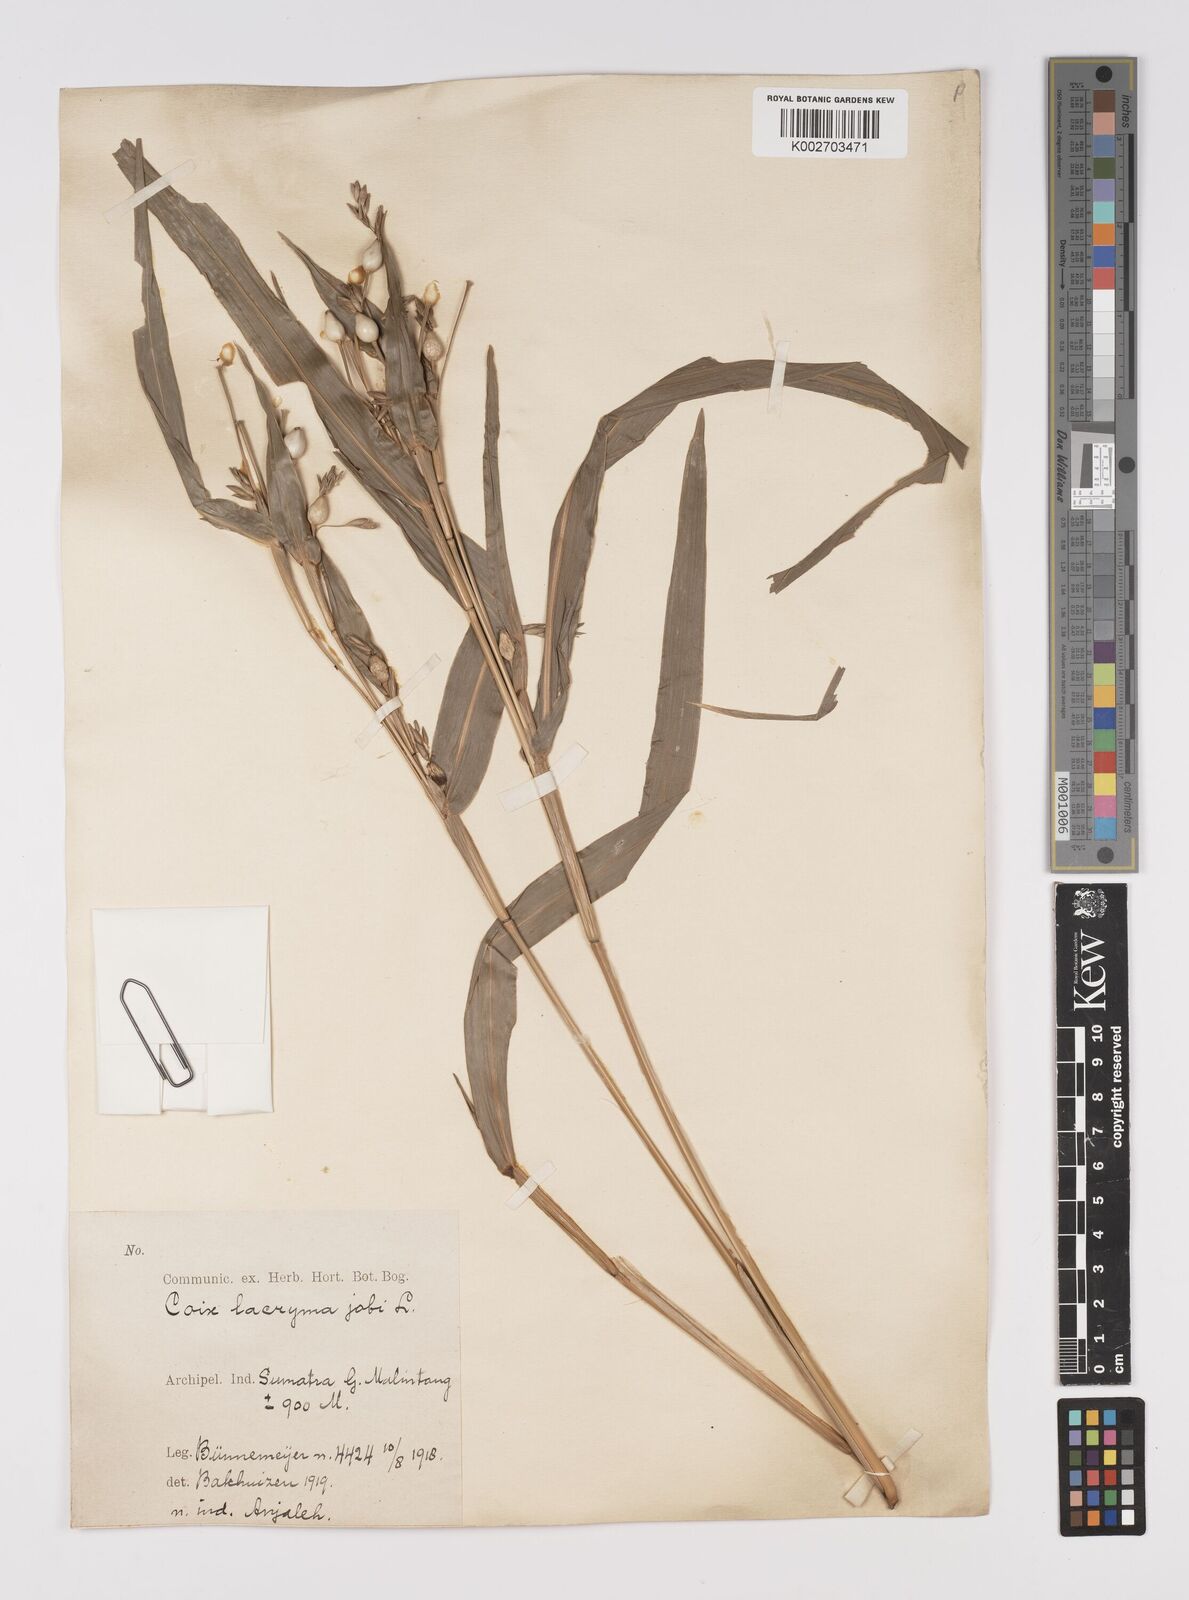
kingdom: Plantae
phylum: Tracheophyta
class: Liliopsida
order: Poales
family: Poaceae
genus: Coix
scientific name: Coix lacryma-jobi
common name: Job's tears
